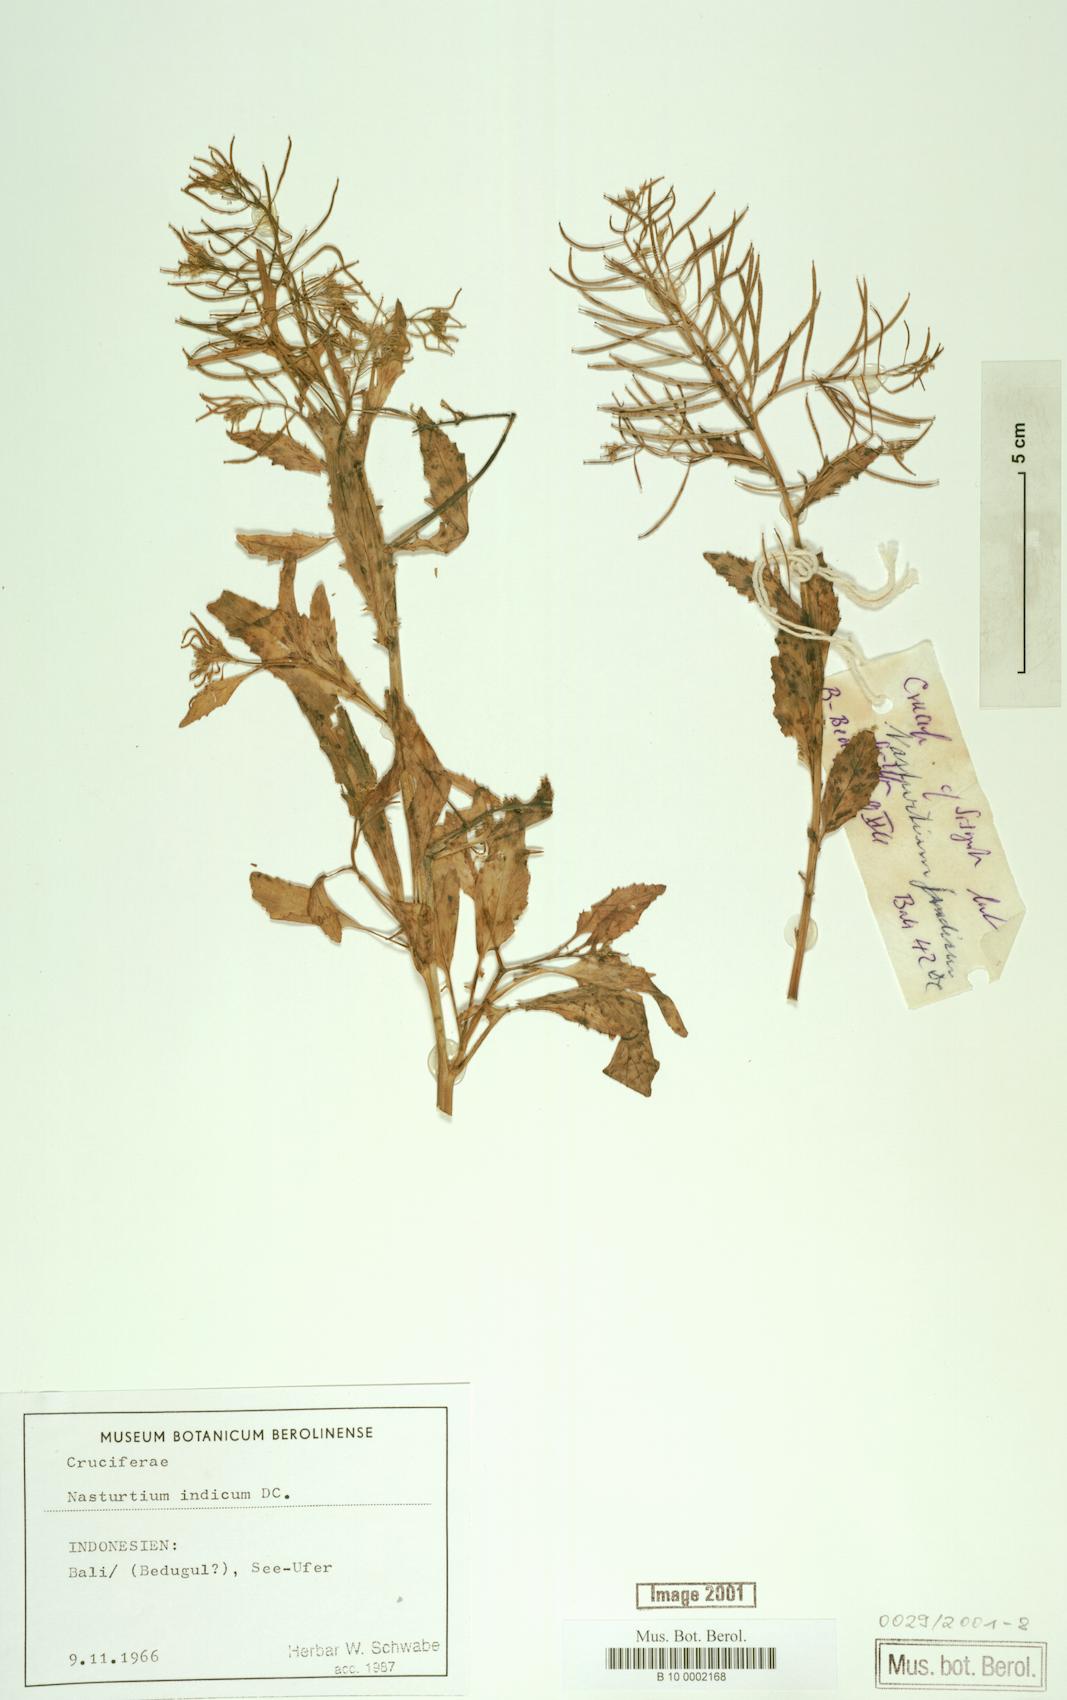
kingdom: Plantae
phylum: Tracheophyta
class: Magnoliopsida
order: Brassicales
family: Brassicaceae
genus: Rorippa
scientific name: Rorippa indica
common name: Variableleaf yellowcress
